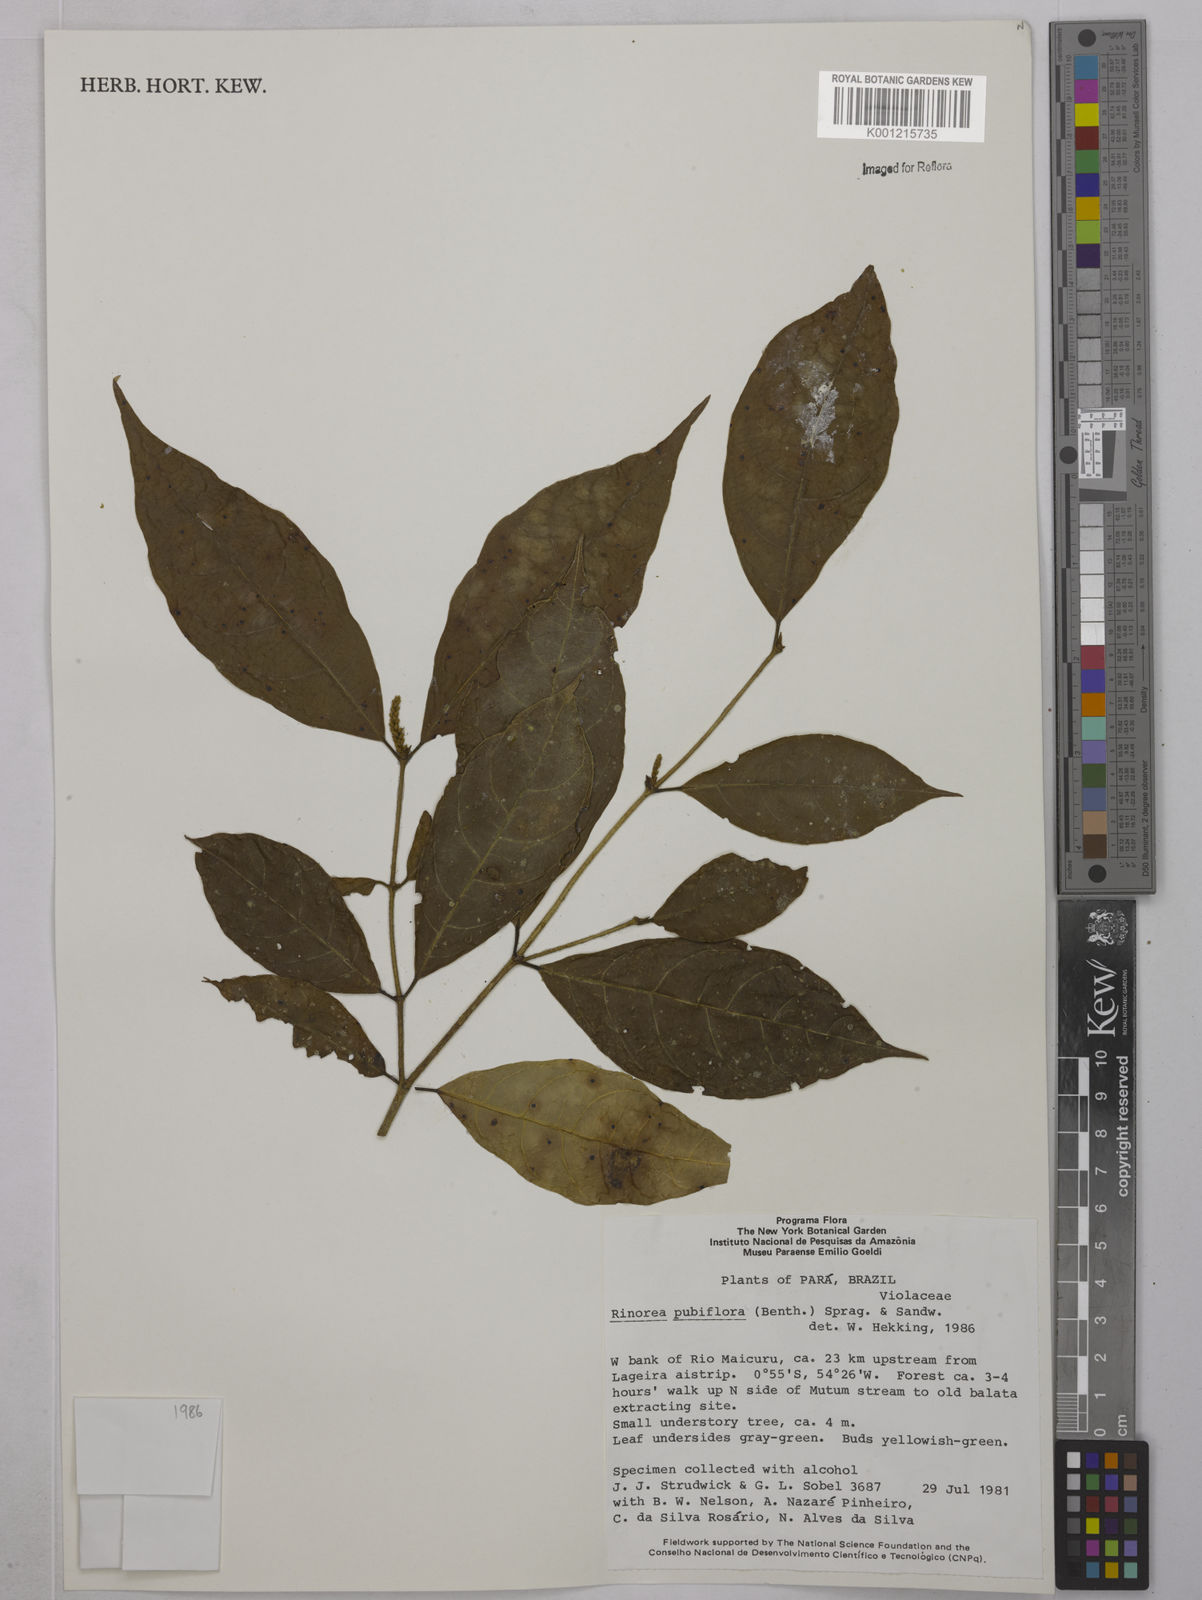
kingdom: Plantae
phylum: Tracheophyta
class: Magnoliopsida
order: Malpighiales
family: Violaceae
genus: Rinorea
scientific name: Rinorea pubiflora
